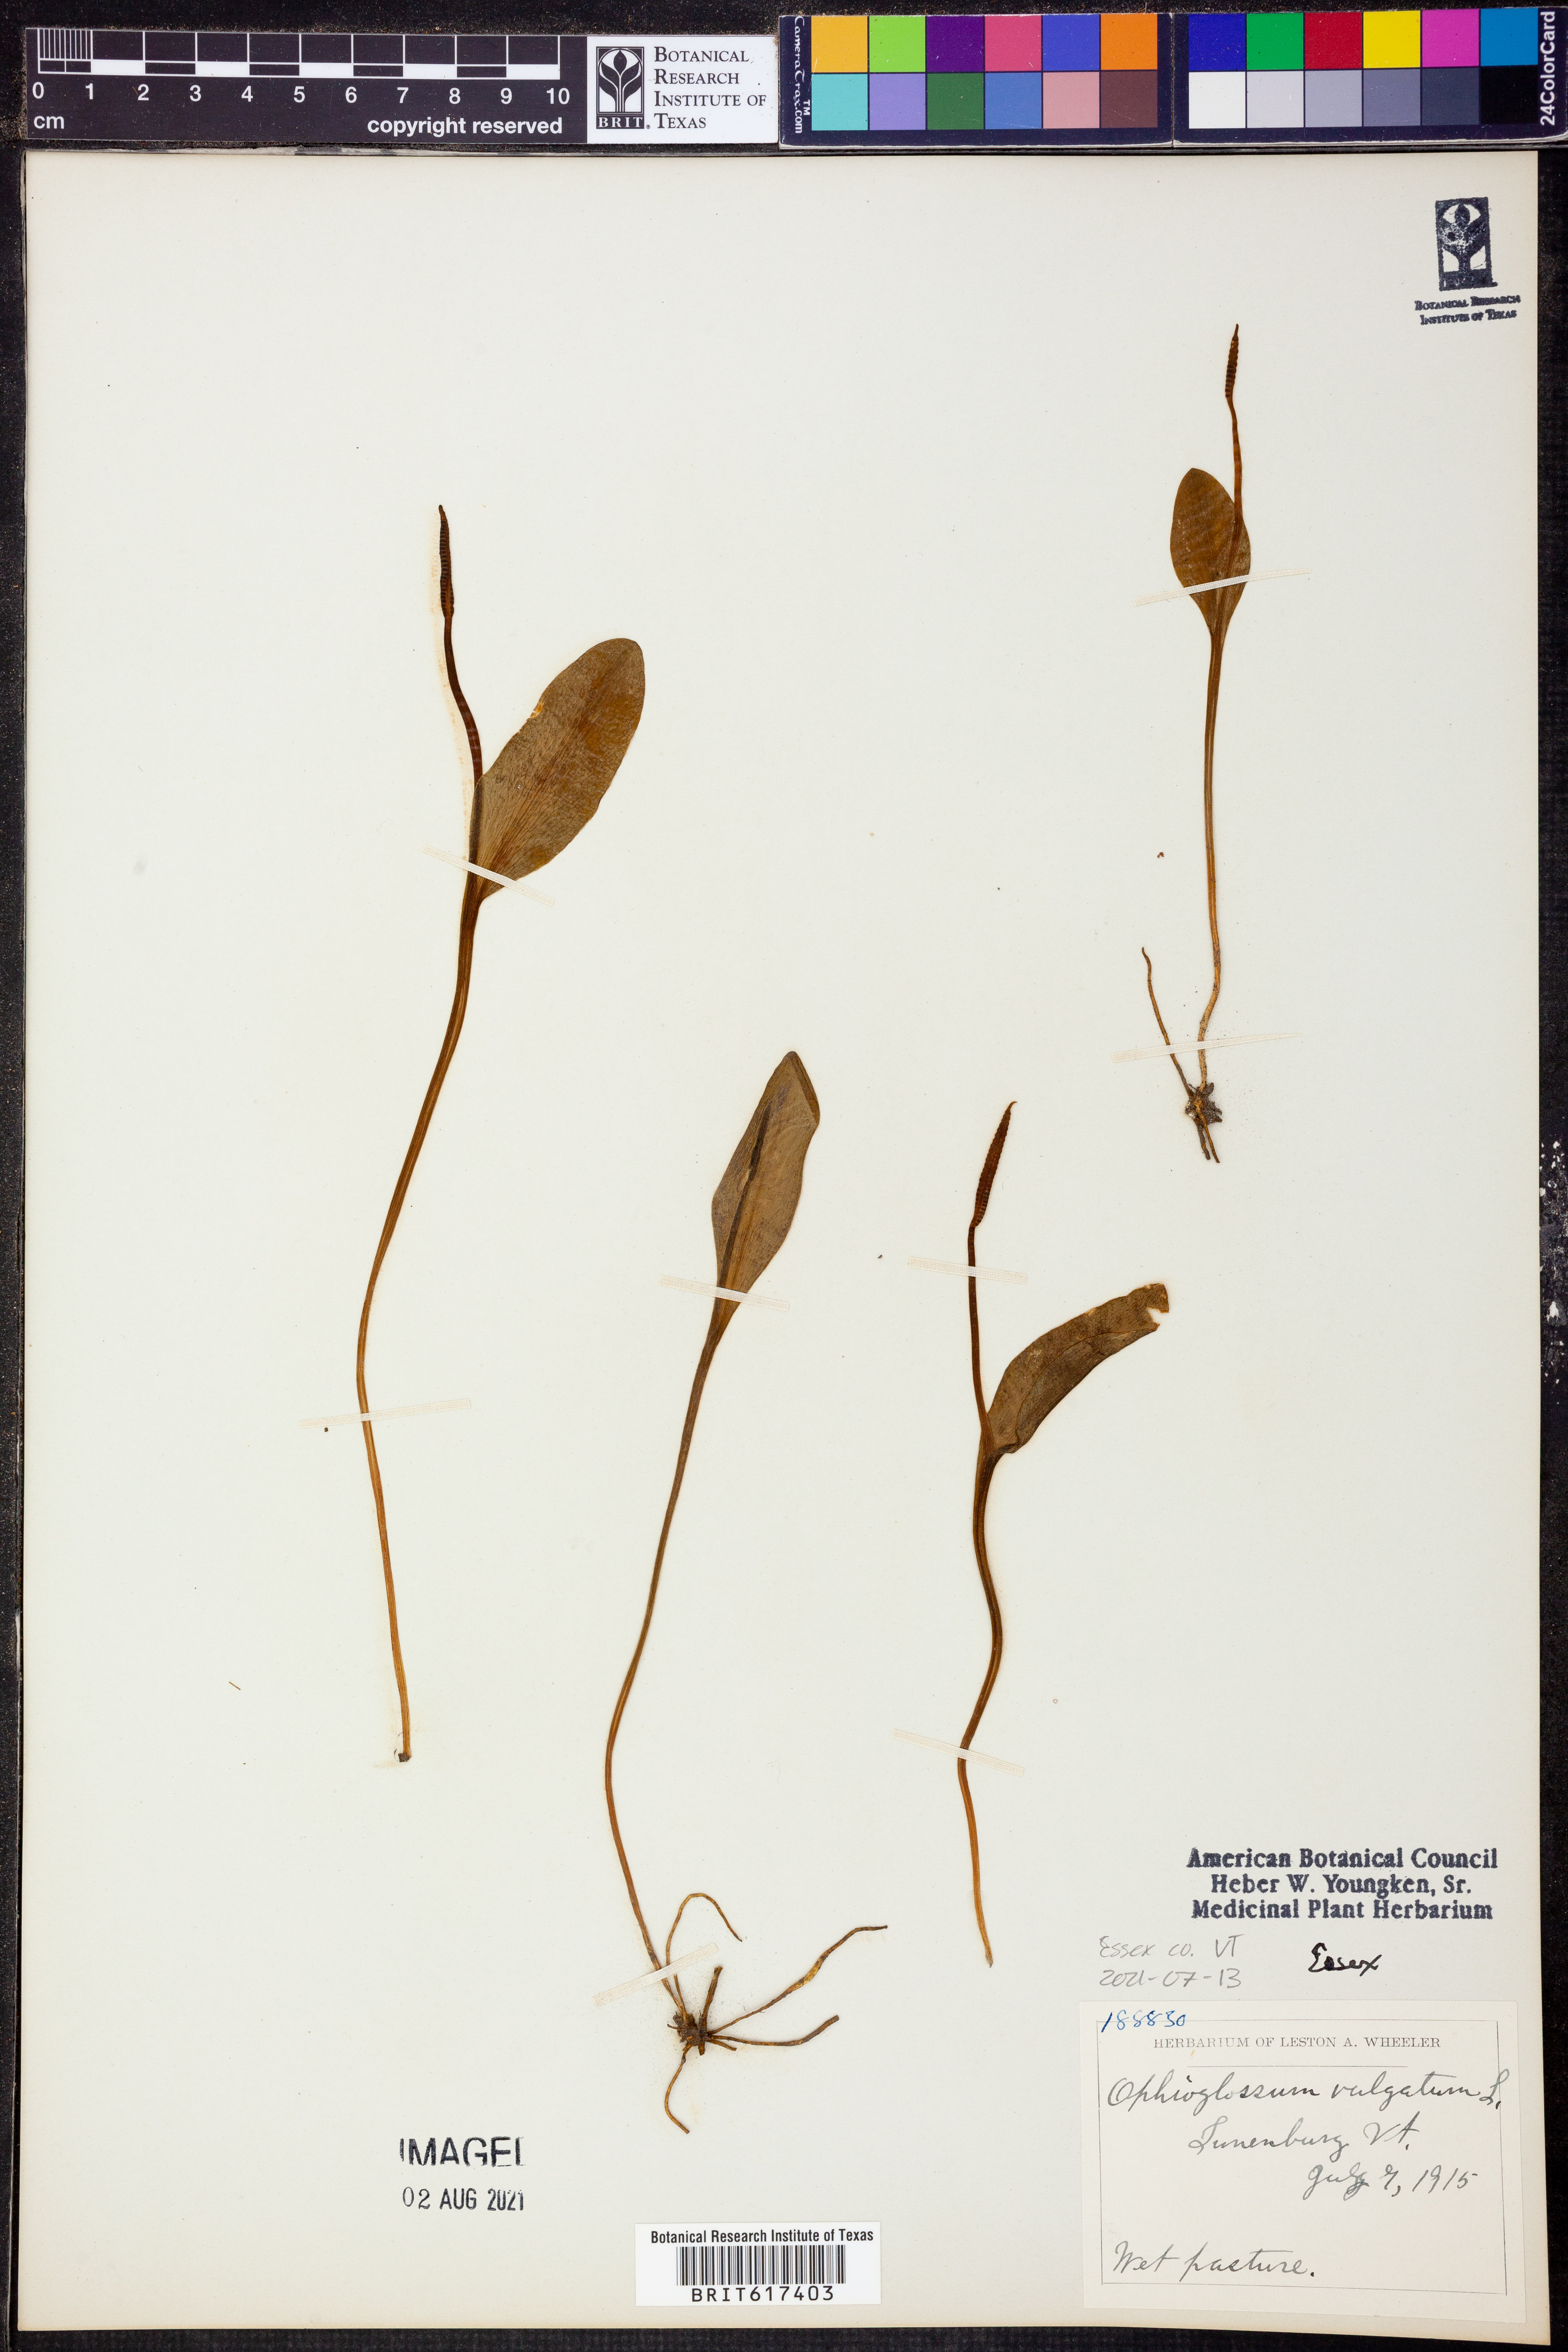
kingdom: Plantae
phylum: Tracheophyta
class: Polypodiopsida
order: Ophioglossales
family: Ophioglossaceae
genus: Ophioglossum
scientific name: Ophioglossum vulgatum
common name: Adder's-tongue
